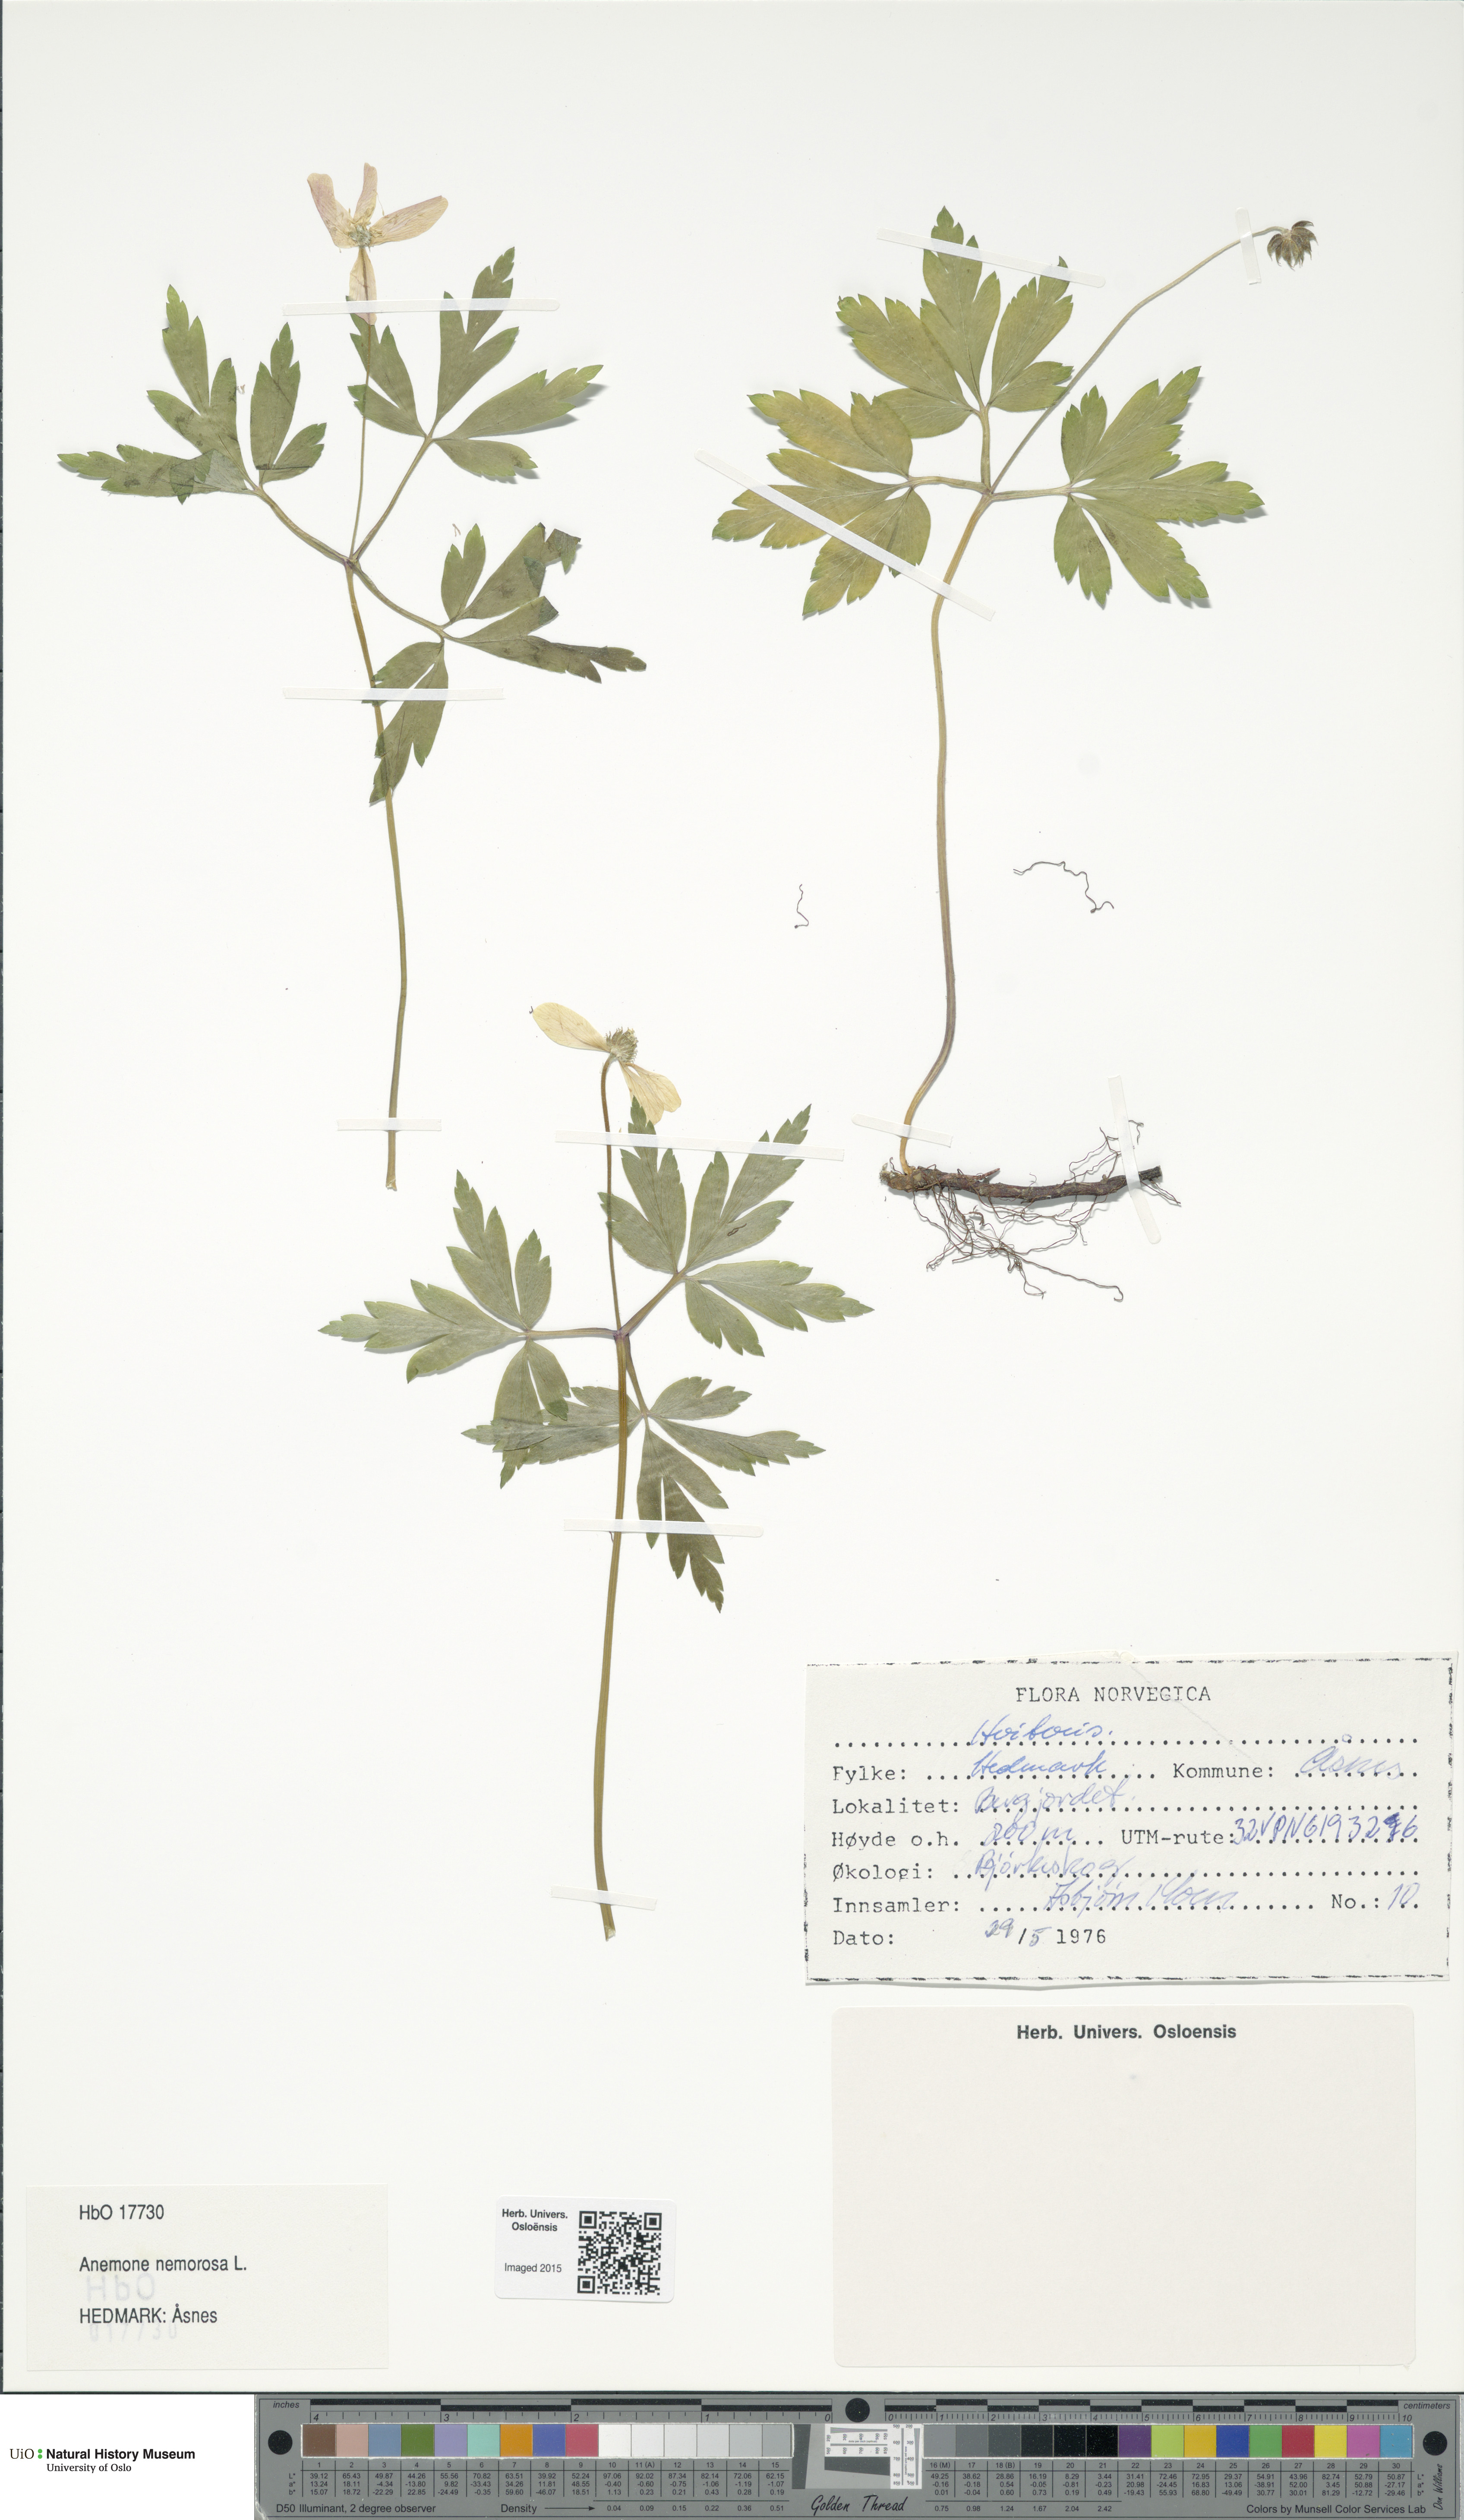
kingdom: Plantae
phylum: Tracheophyta
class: Magnoliopsida
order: Ranunculales
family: Ranunculaceae
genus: Anemone
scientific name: Anemone nemorosa
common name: Wood anemone
